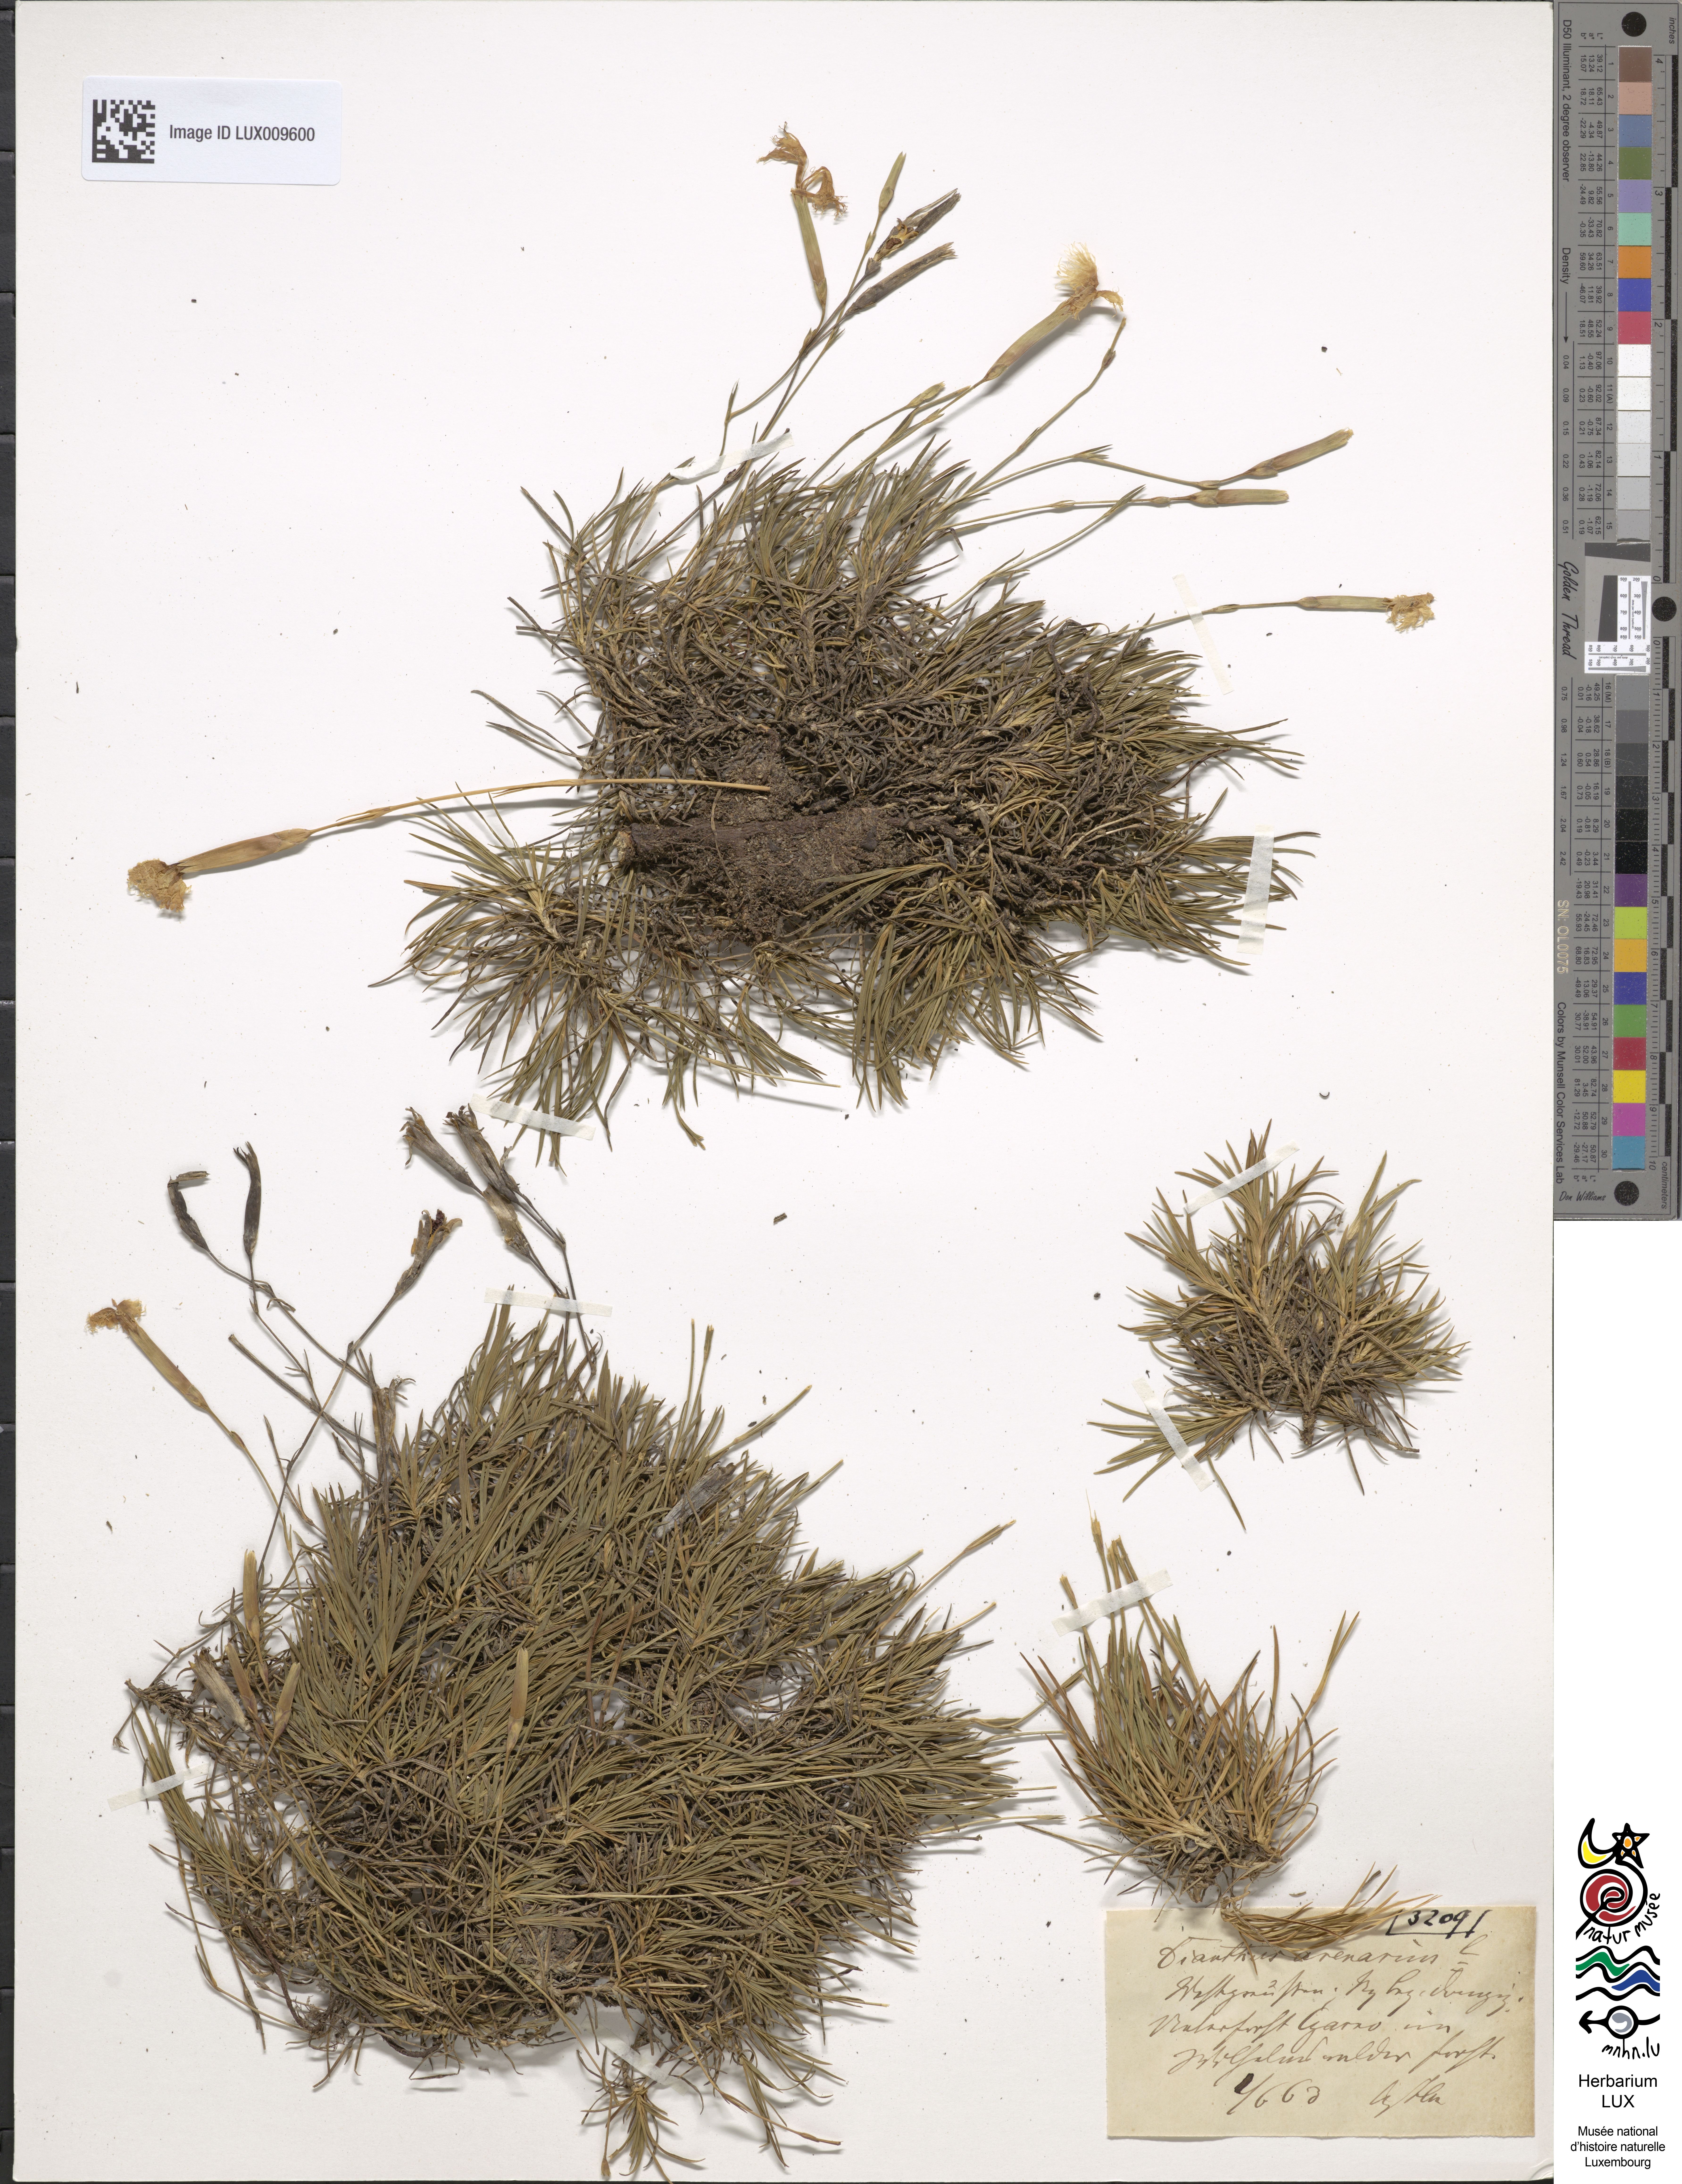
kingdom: Plantae
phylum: Tracheophyta
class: Magnoliopsida
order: Caryophyllales
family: Caryophyllaceae
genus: Dianthus
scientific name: Dianthus arenarius
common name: Stone pink
